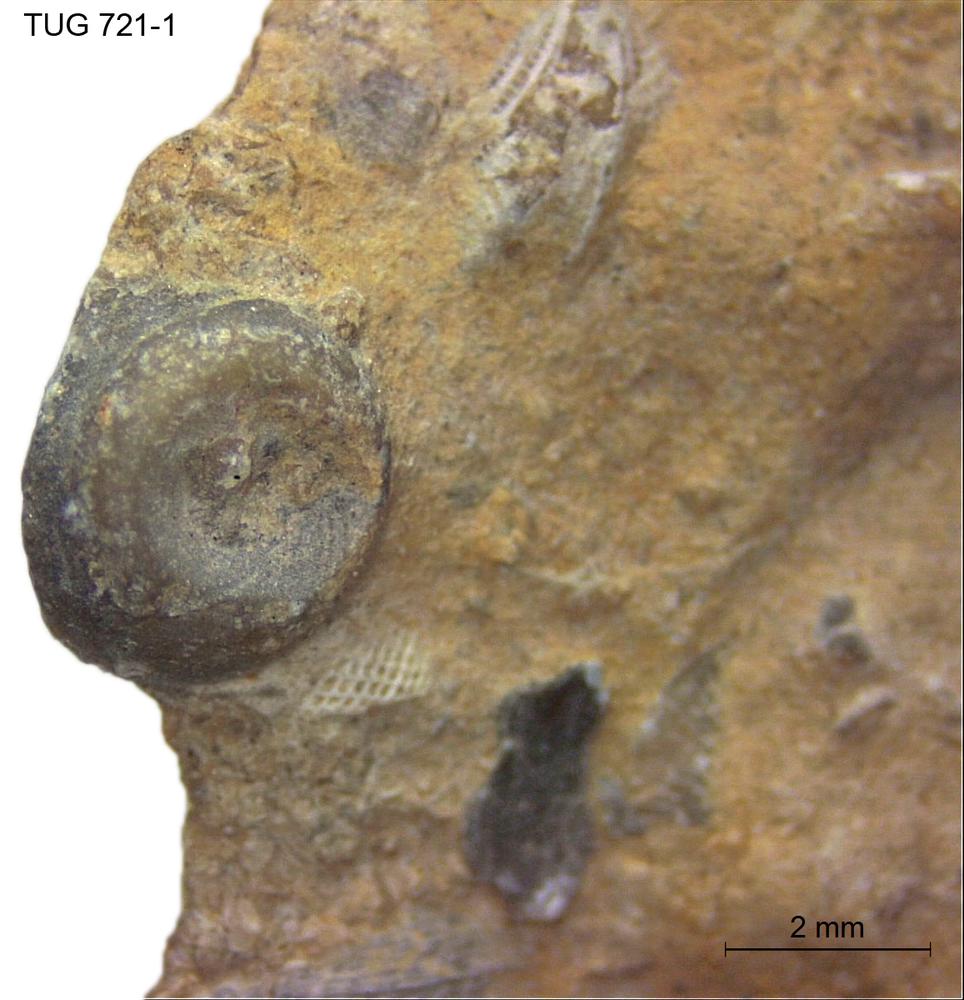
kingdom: Animalia
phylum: Mollusca
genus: Anticalyptraea
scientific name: Anticalyptraea westergaardi
